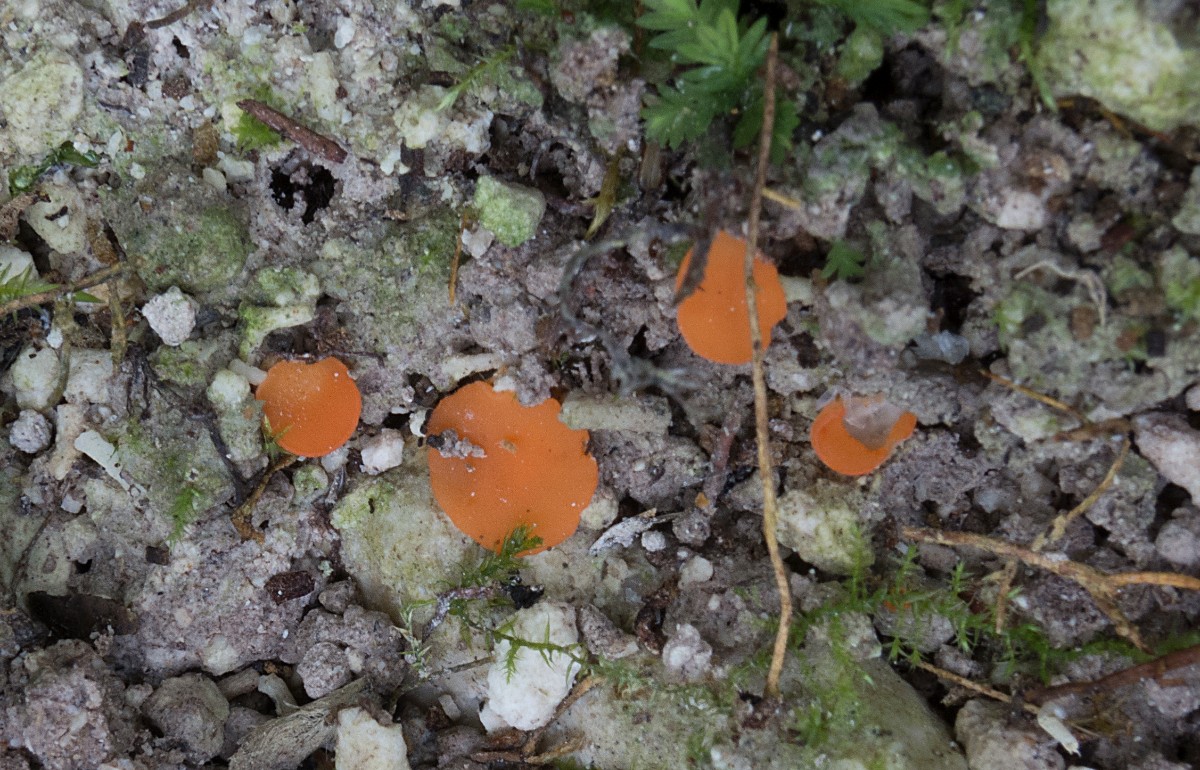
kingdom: Fungi
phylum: Ascomycota
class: Pezizomycetes
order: Pezizales
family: Pulvinulaceae
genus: Pulvinula
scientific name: Pulvinula miltina
